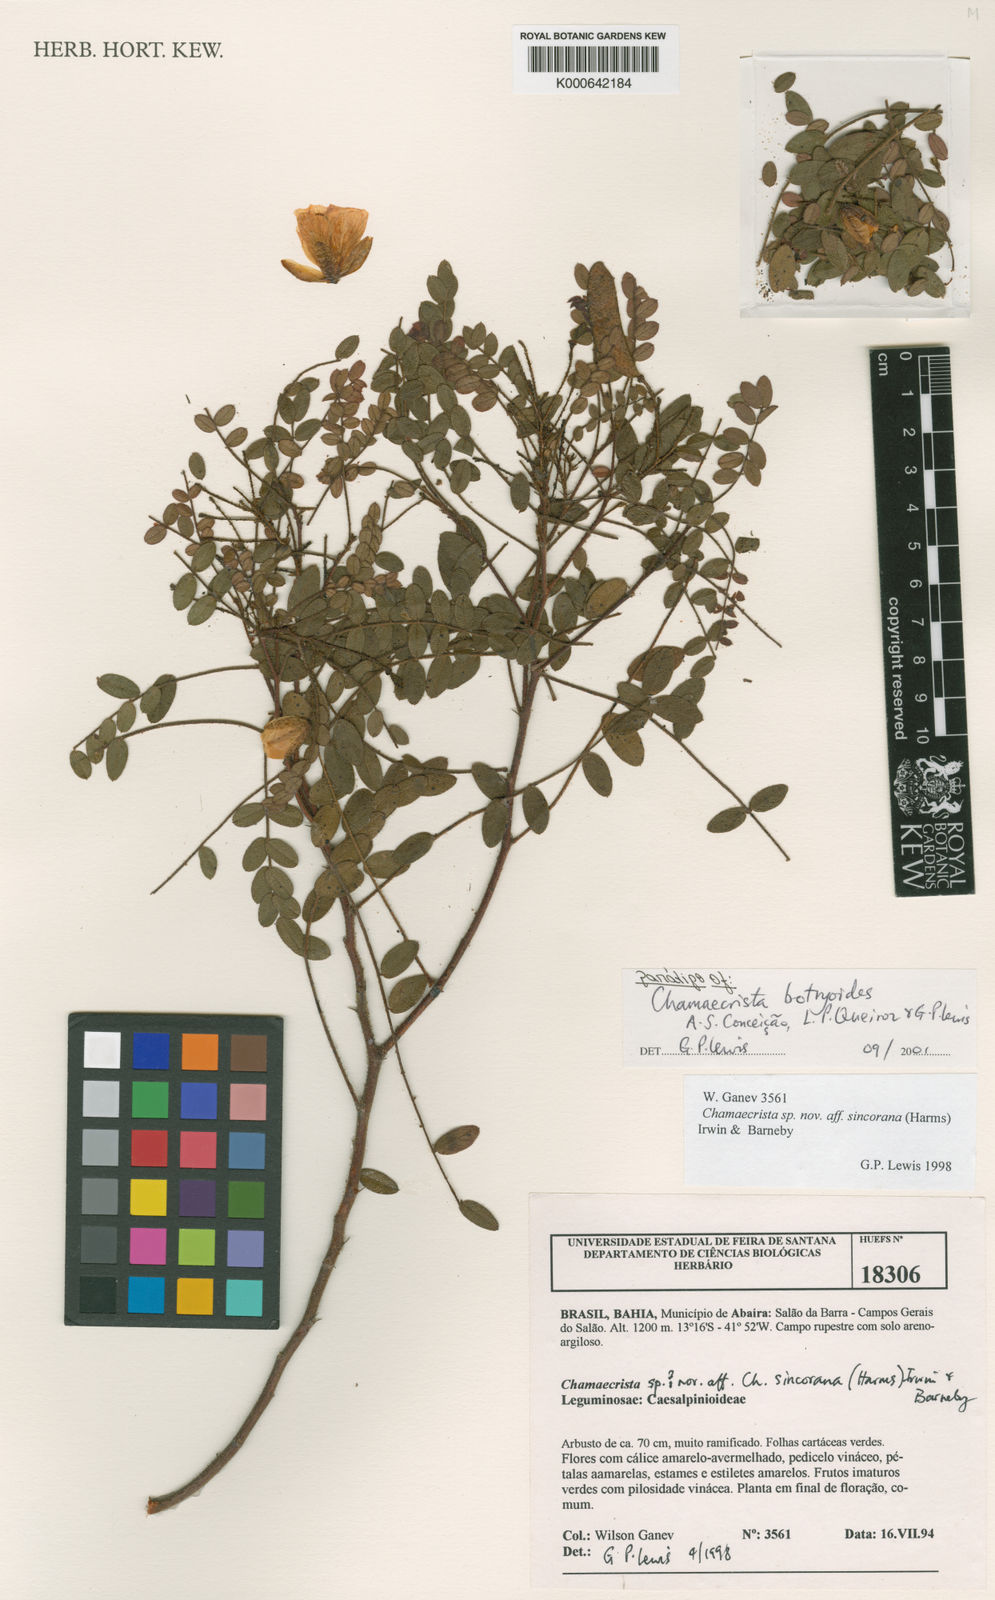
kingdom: Plantae
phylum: Tracheophyta
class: Magnoliopsida
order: Fabales
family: Fabaceae
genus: Chamaecrista
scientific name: Chamaecrista botryoides
